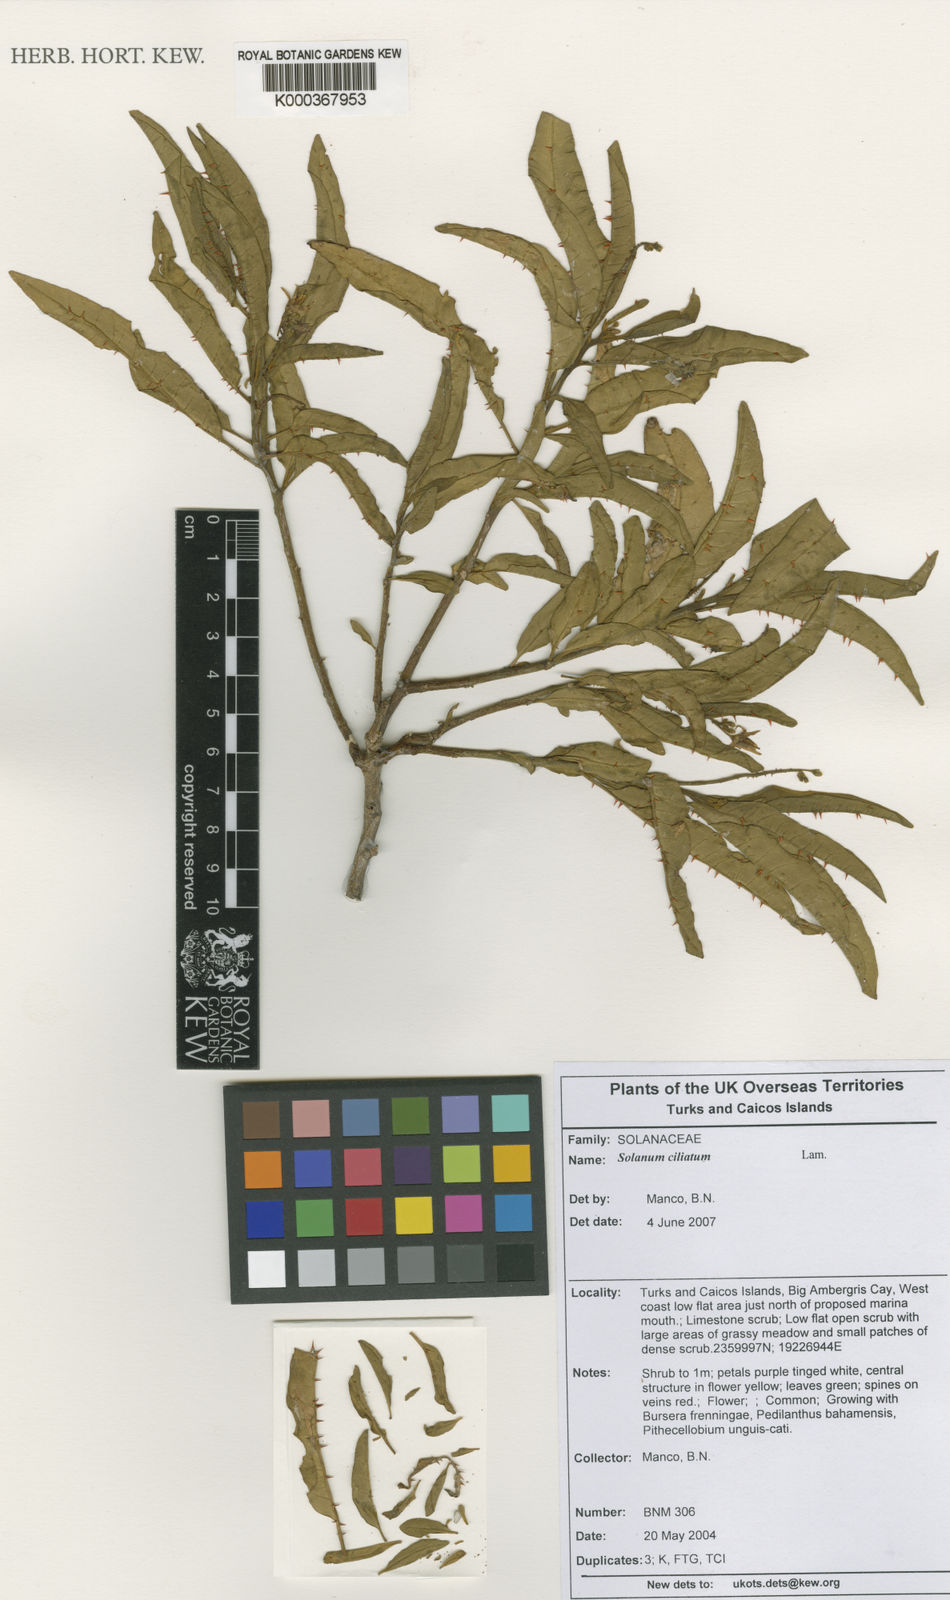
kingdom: Plantae
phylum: Tracheophyta
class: Magnoliopsida
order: Solanales
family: Solanaceae
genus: Solanum
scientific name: Solanum bahamense
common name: Canker-berry
